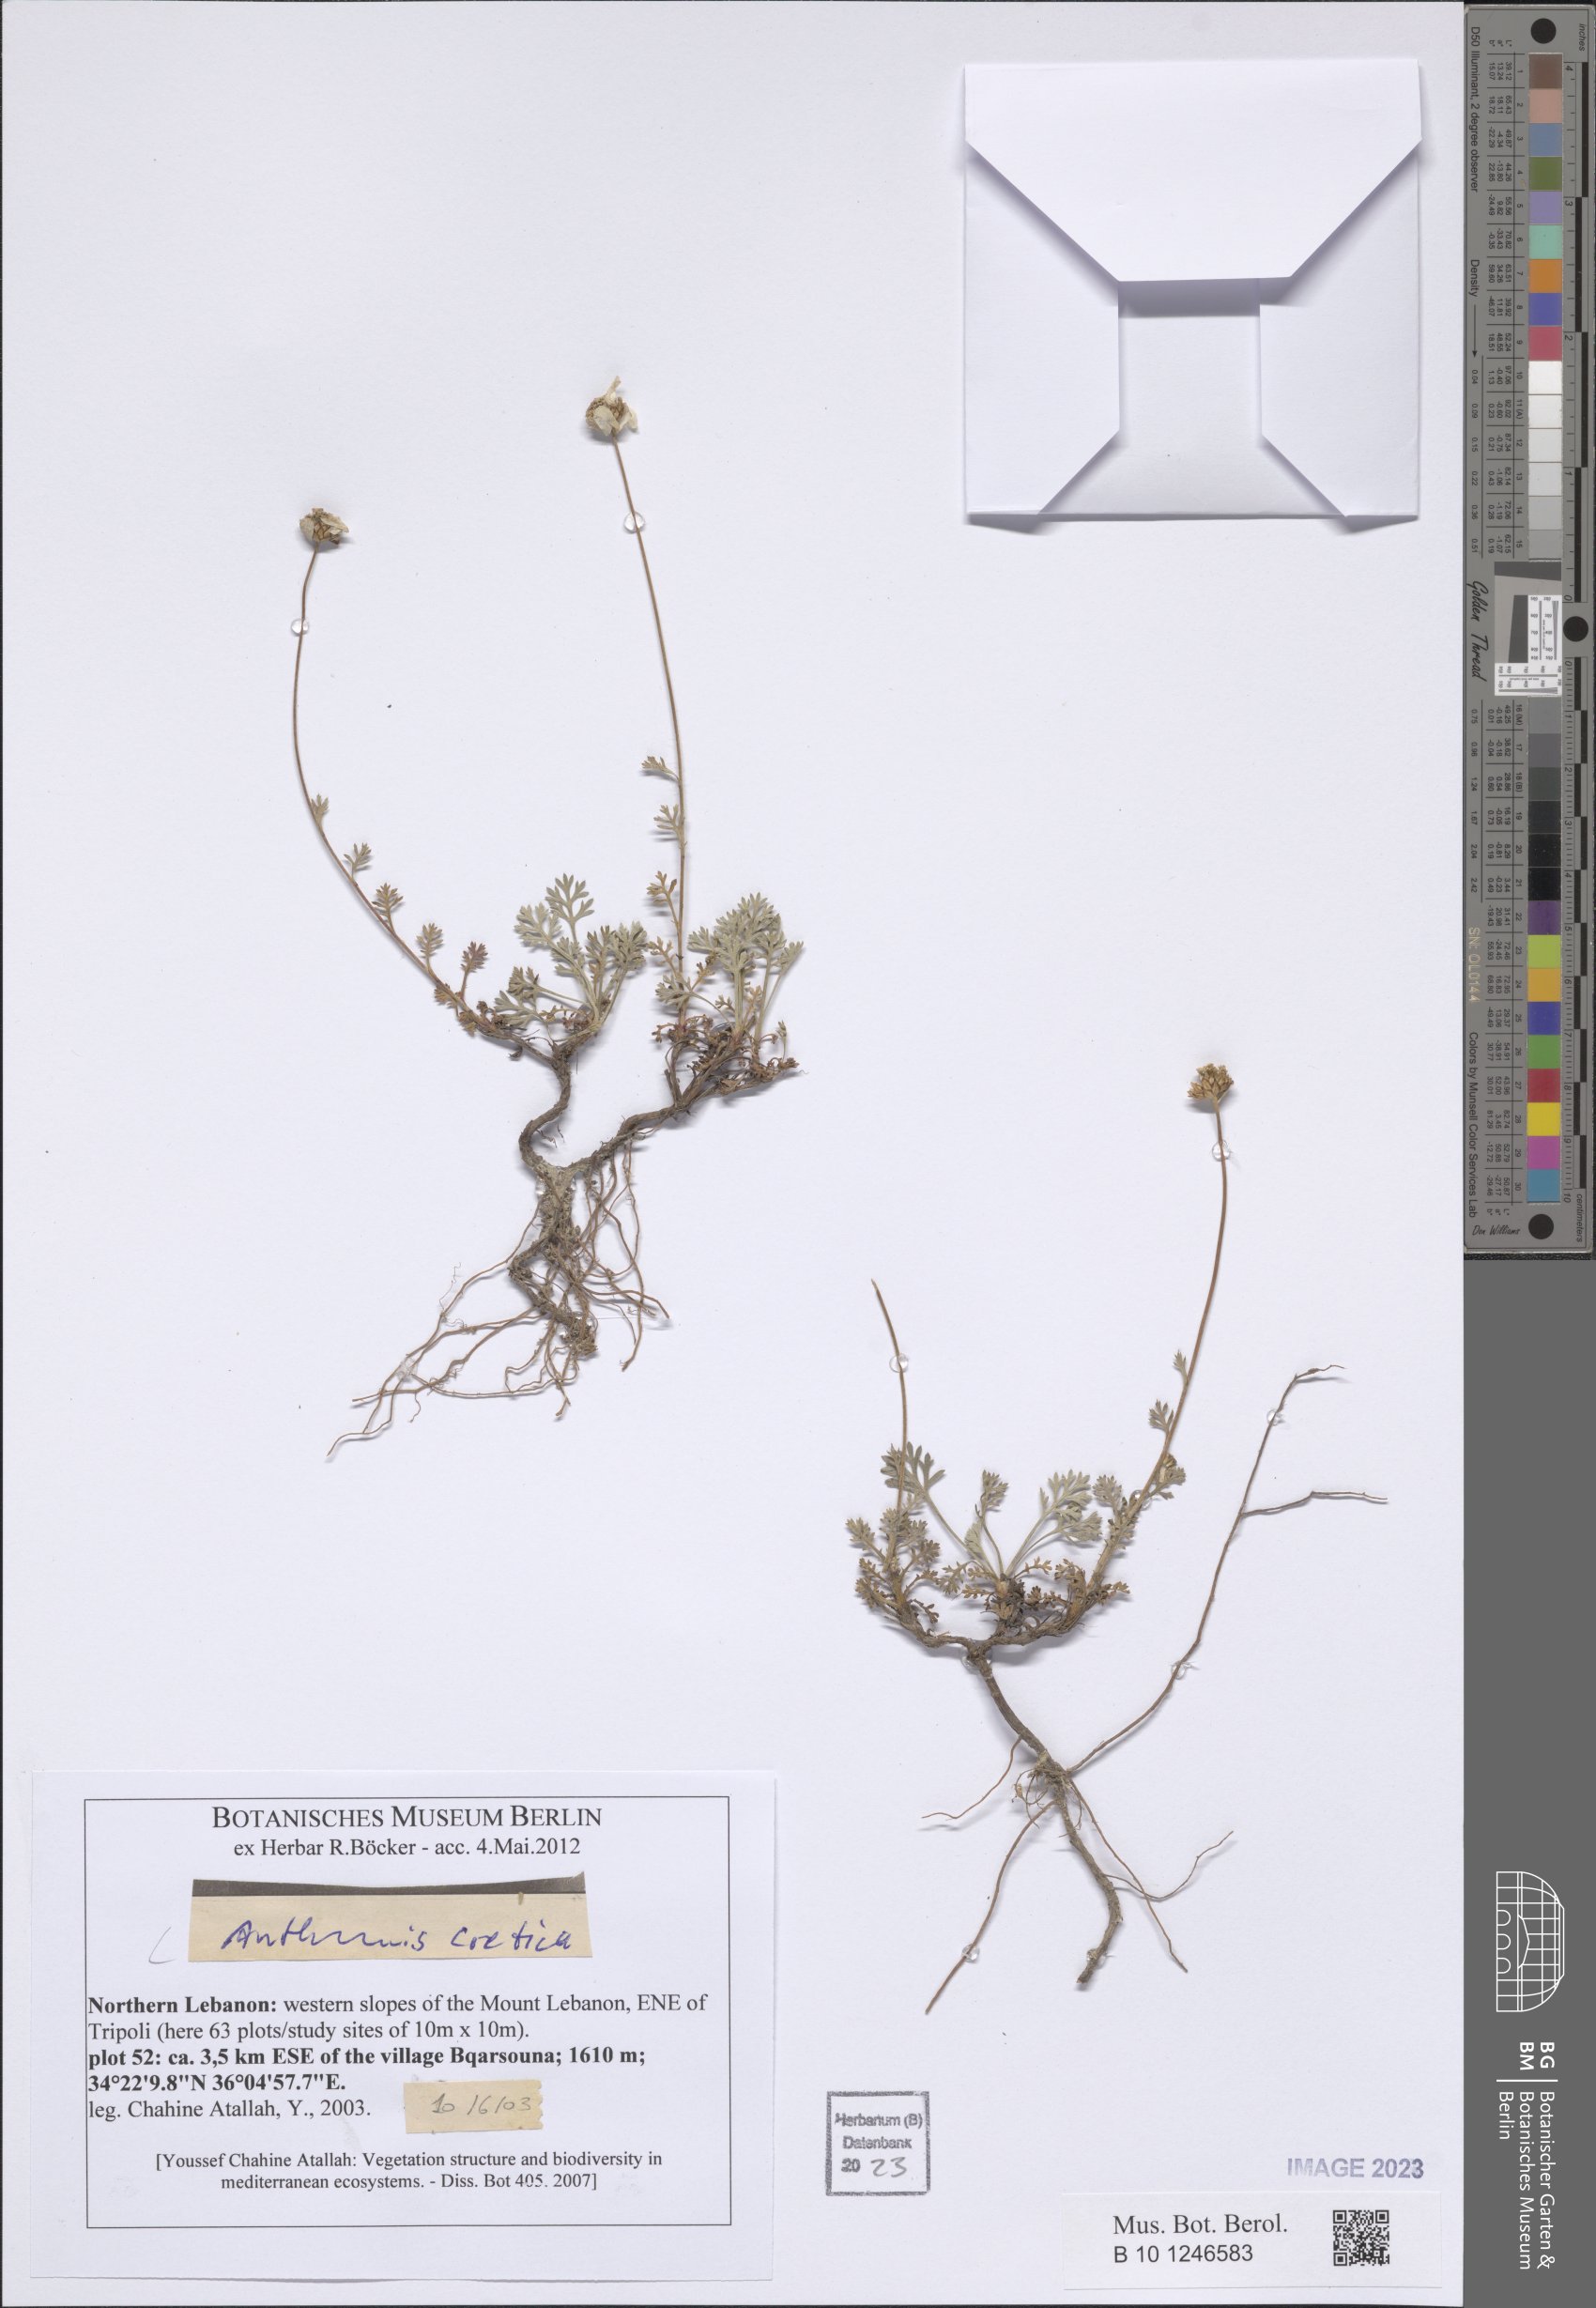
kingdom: Plantae
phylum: Tracheophyta
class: Magnoliopsida
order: Asterales
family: Asteraceae
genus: Anthemis
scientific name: Anthemis cretica
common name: Mountain dog-daisy
